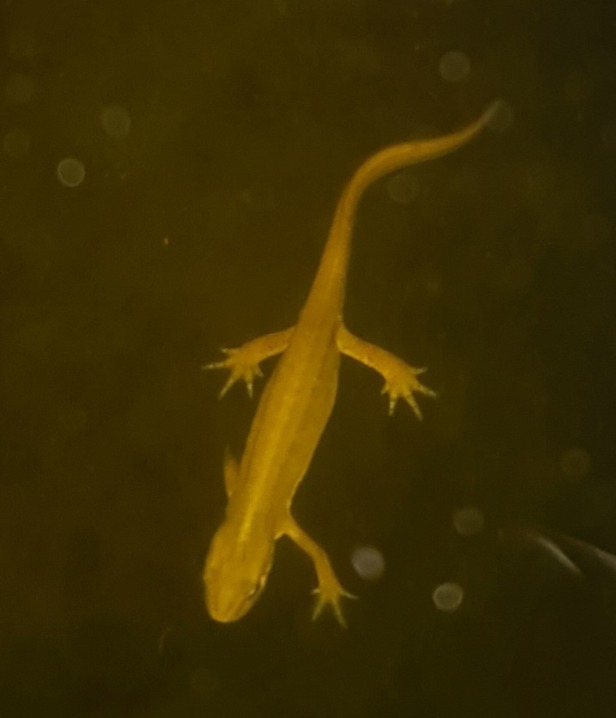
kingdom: Animalia
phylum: Chordata
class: Amphibia
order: Caudata
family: Salamandridae
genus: Lissotriton
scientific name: Lissotriton vulgaris
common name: Lille vandsalamander
